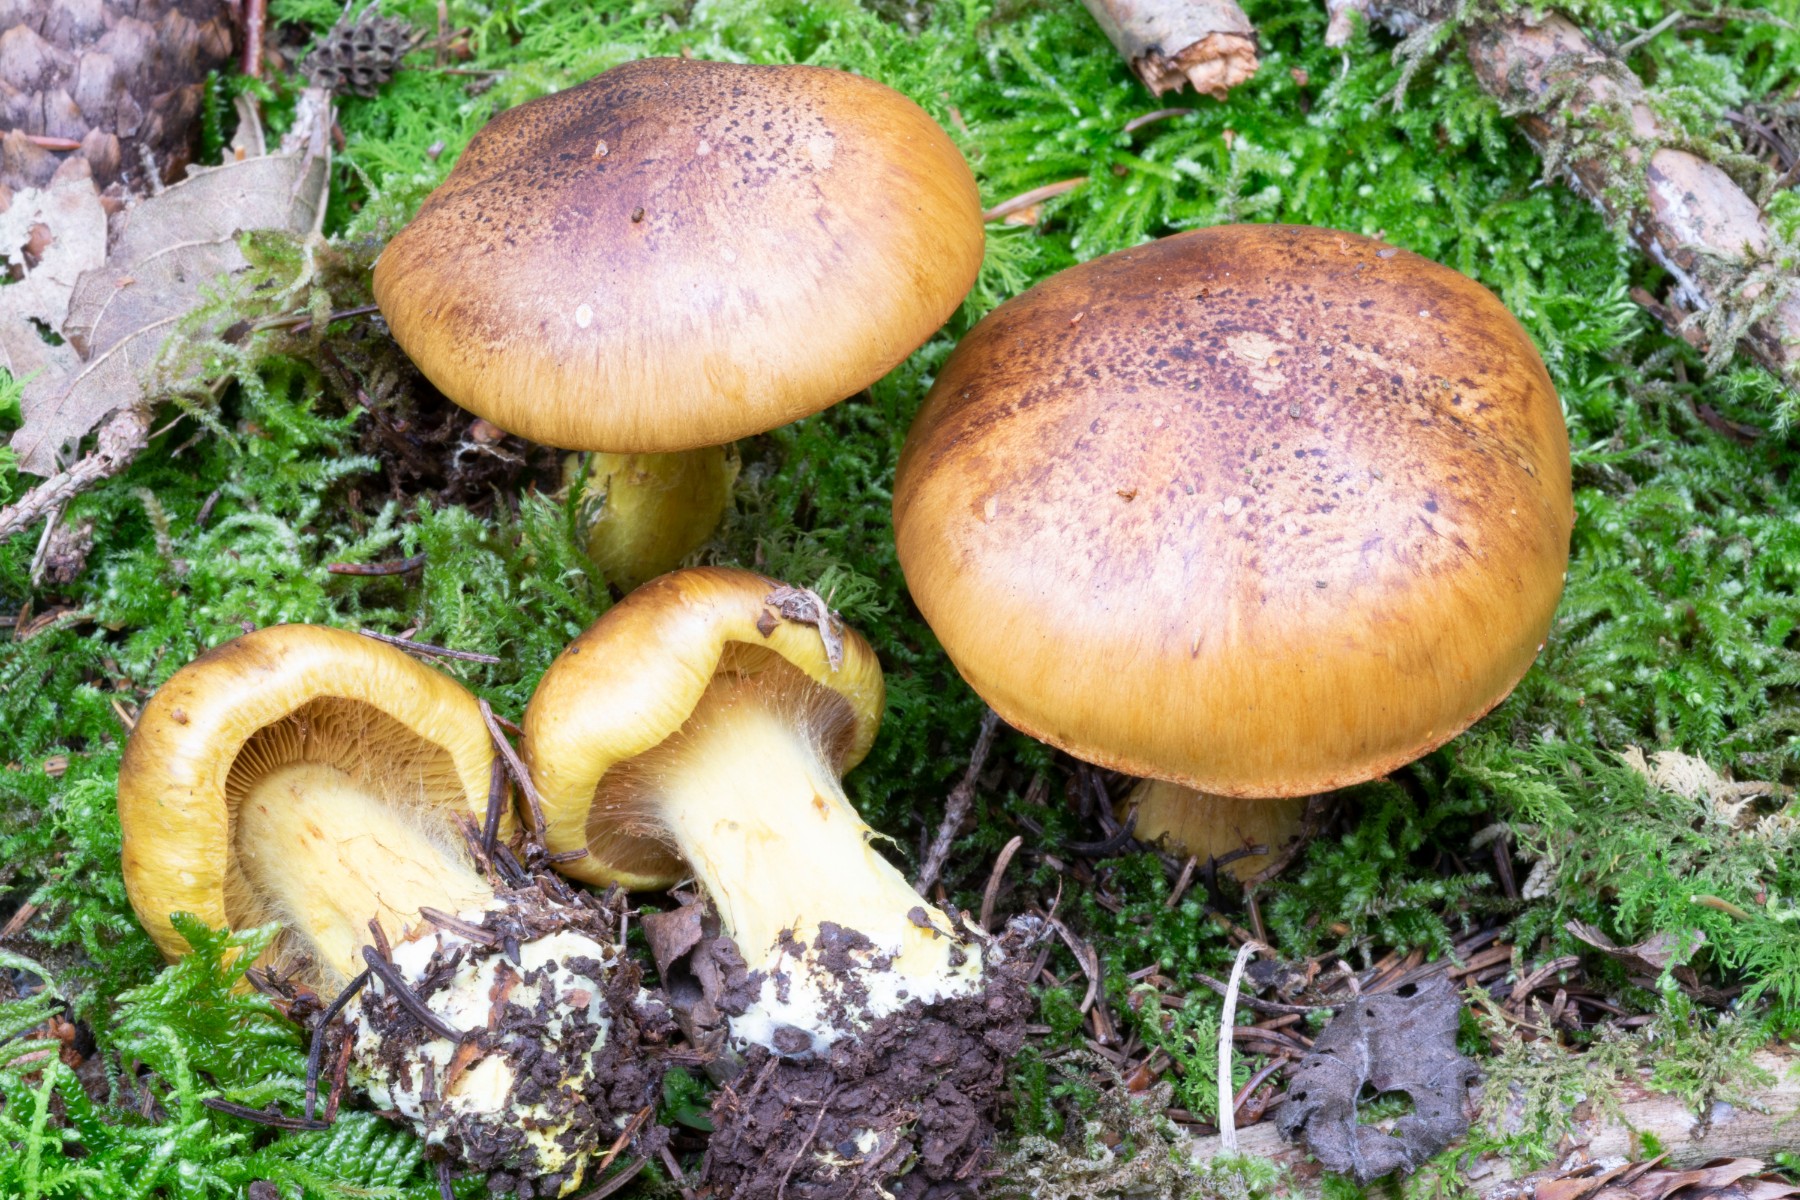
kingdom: Fungi
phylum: Basidiomycota
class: Agaricomycetes
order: Agaricales
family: Cortinariaceae
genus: Calonarius
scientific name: Calonarius meinhardii
